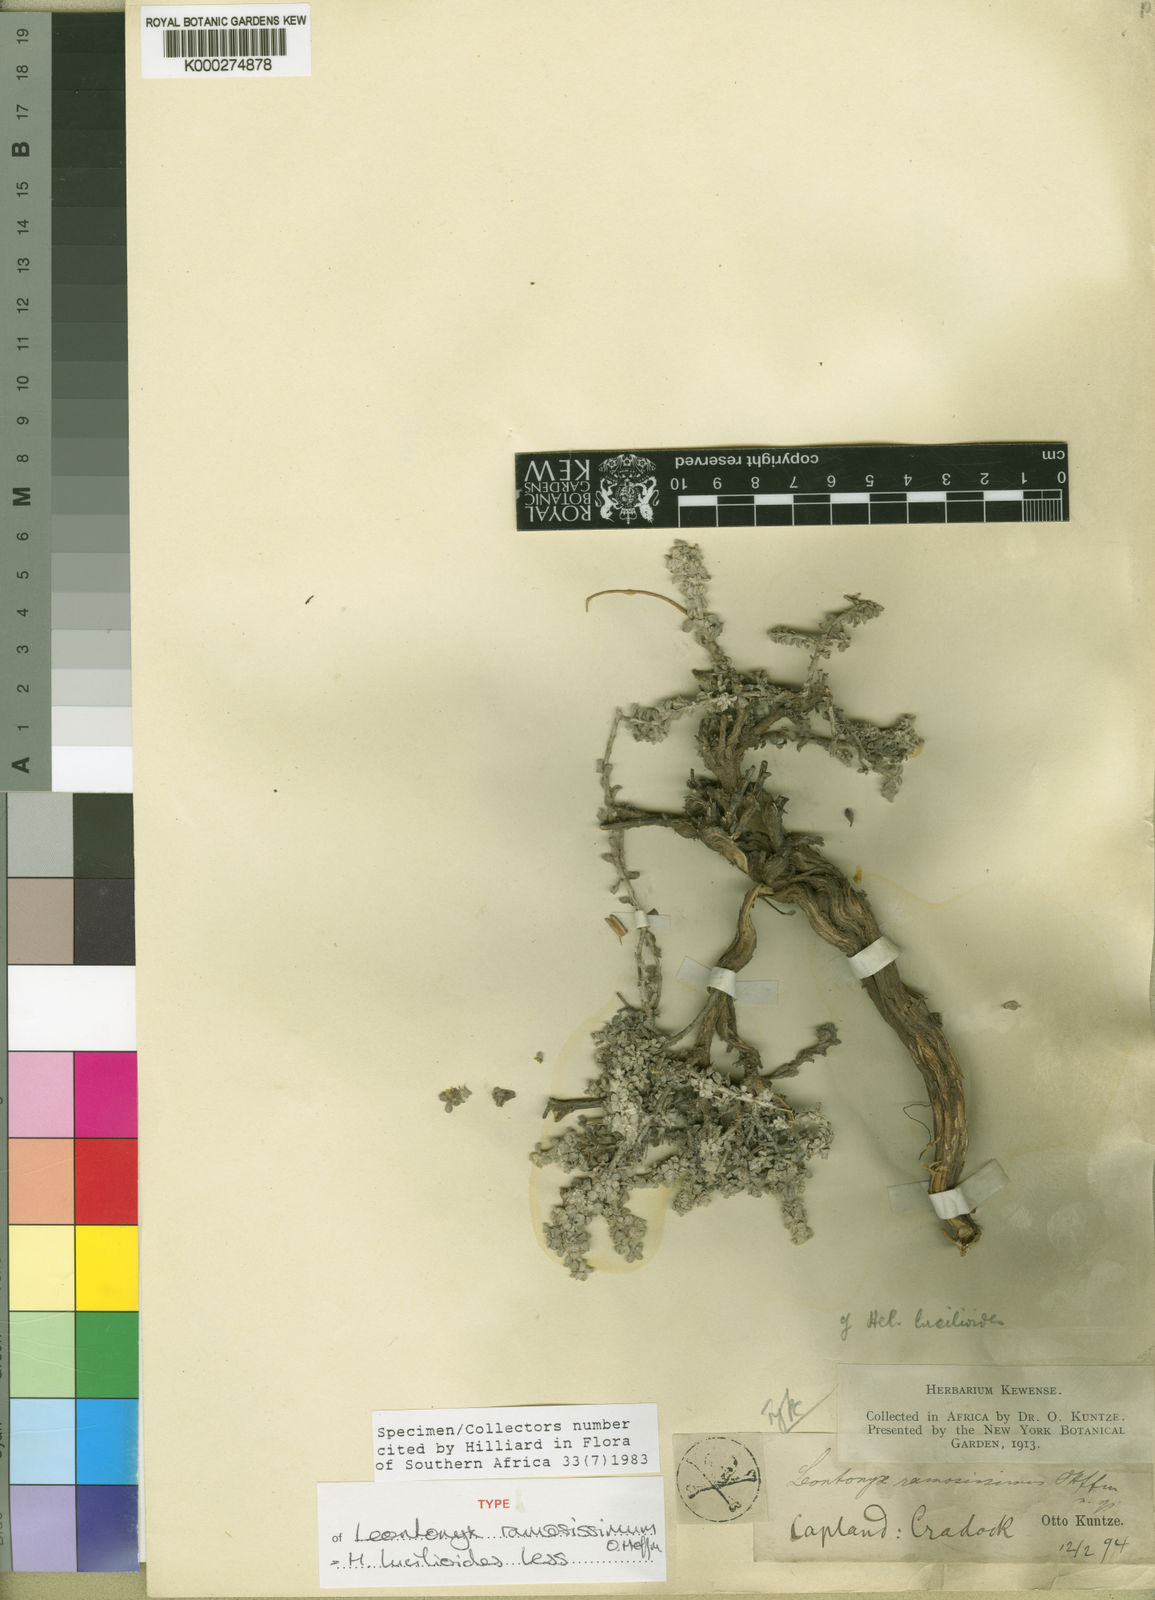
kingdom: Plantae
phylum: Tracheophyta
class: Magnoliopsida
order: Asterales
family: Asteraceae
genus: Helichrysum
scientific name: Helichrysum
